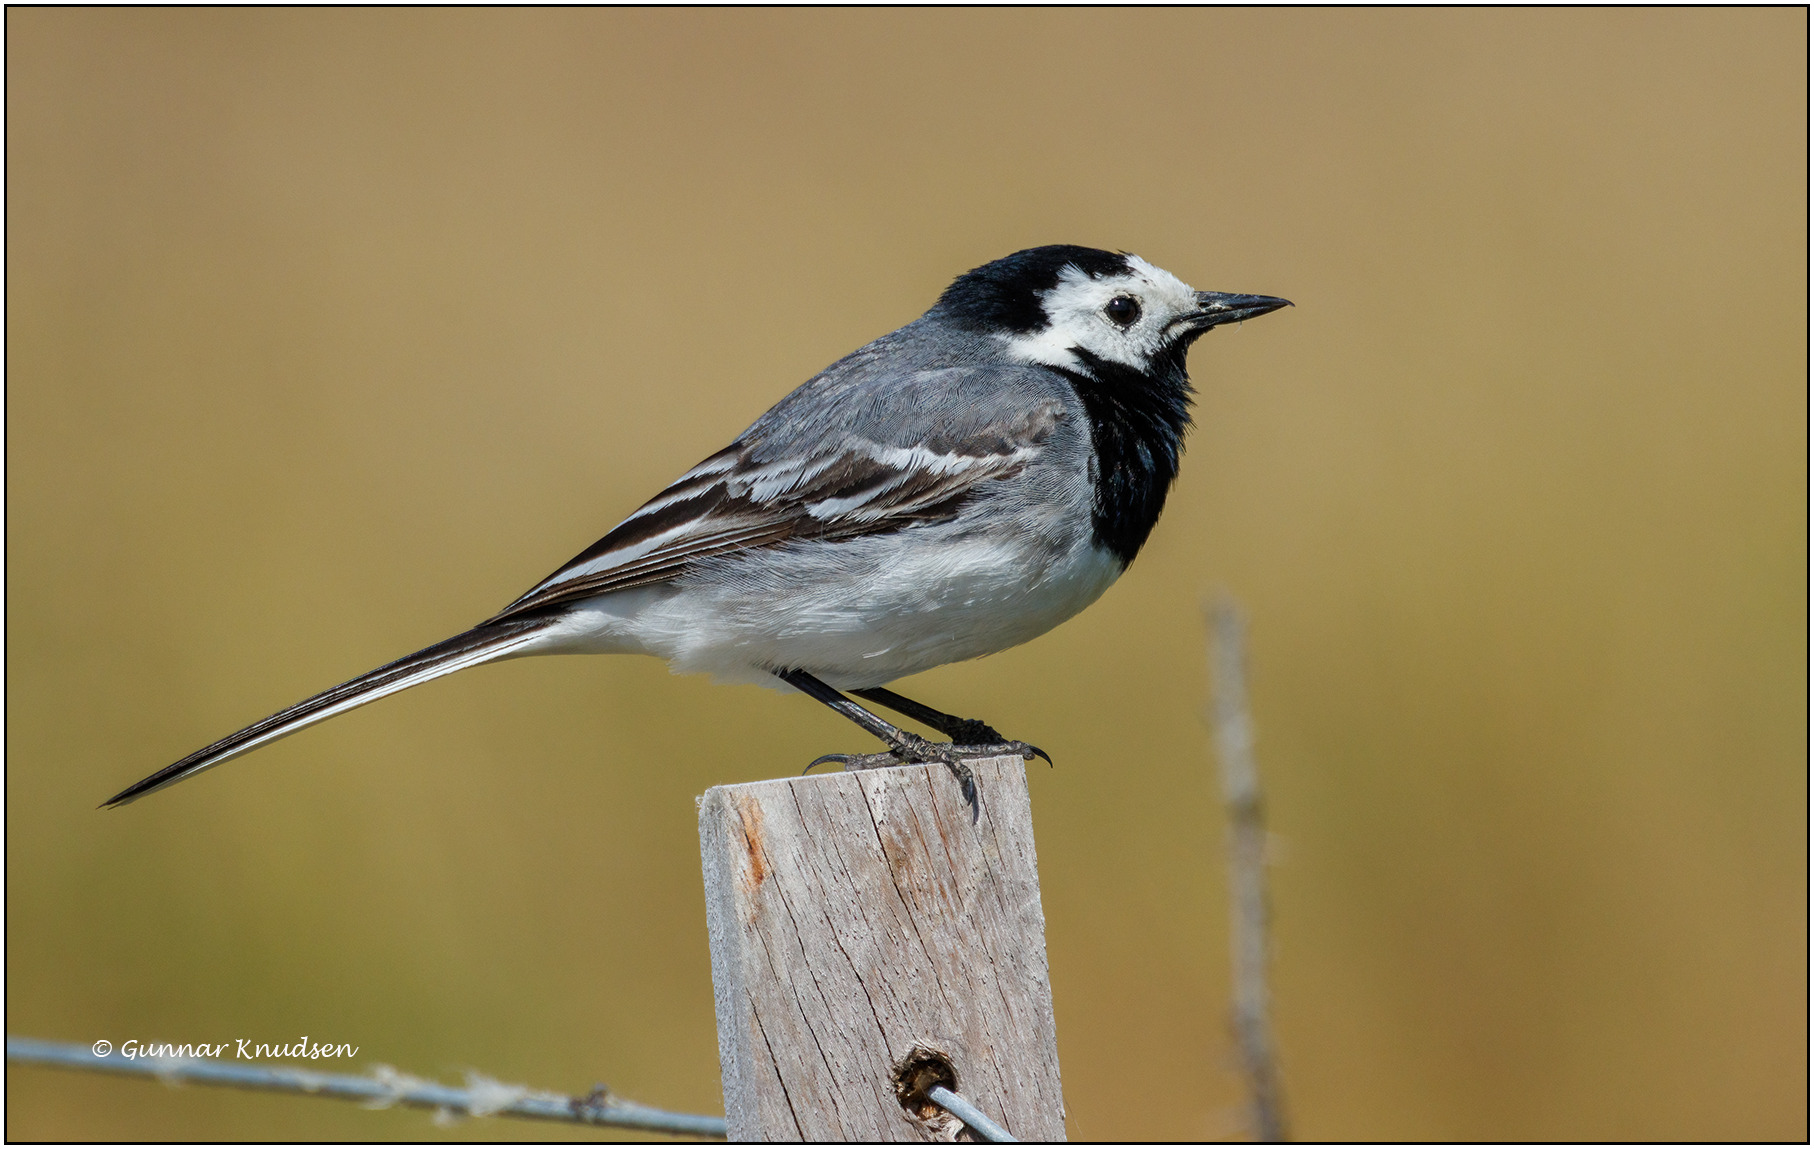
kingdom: Animalia
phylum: Chordata
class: Aves
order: Passeriformes
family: Motacillidae
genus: Motacilla
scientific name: Motacilla alba
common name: Hvid vipstjert
